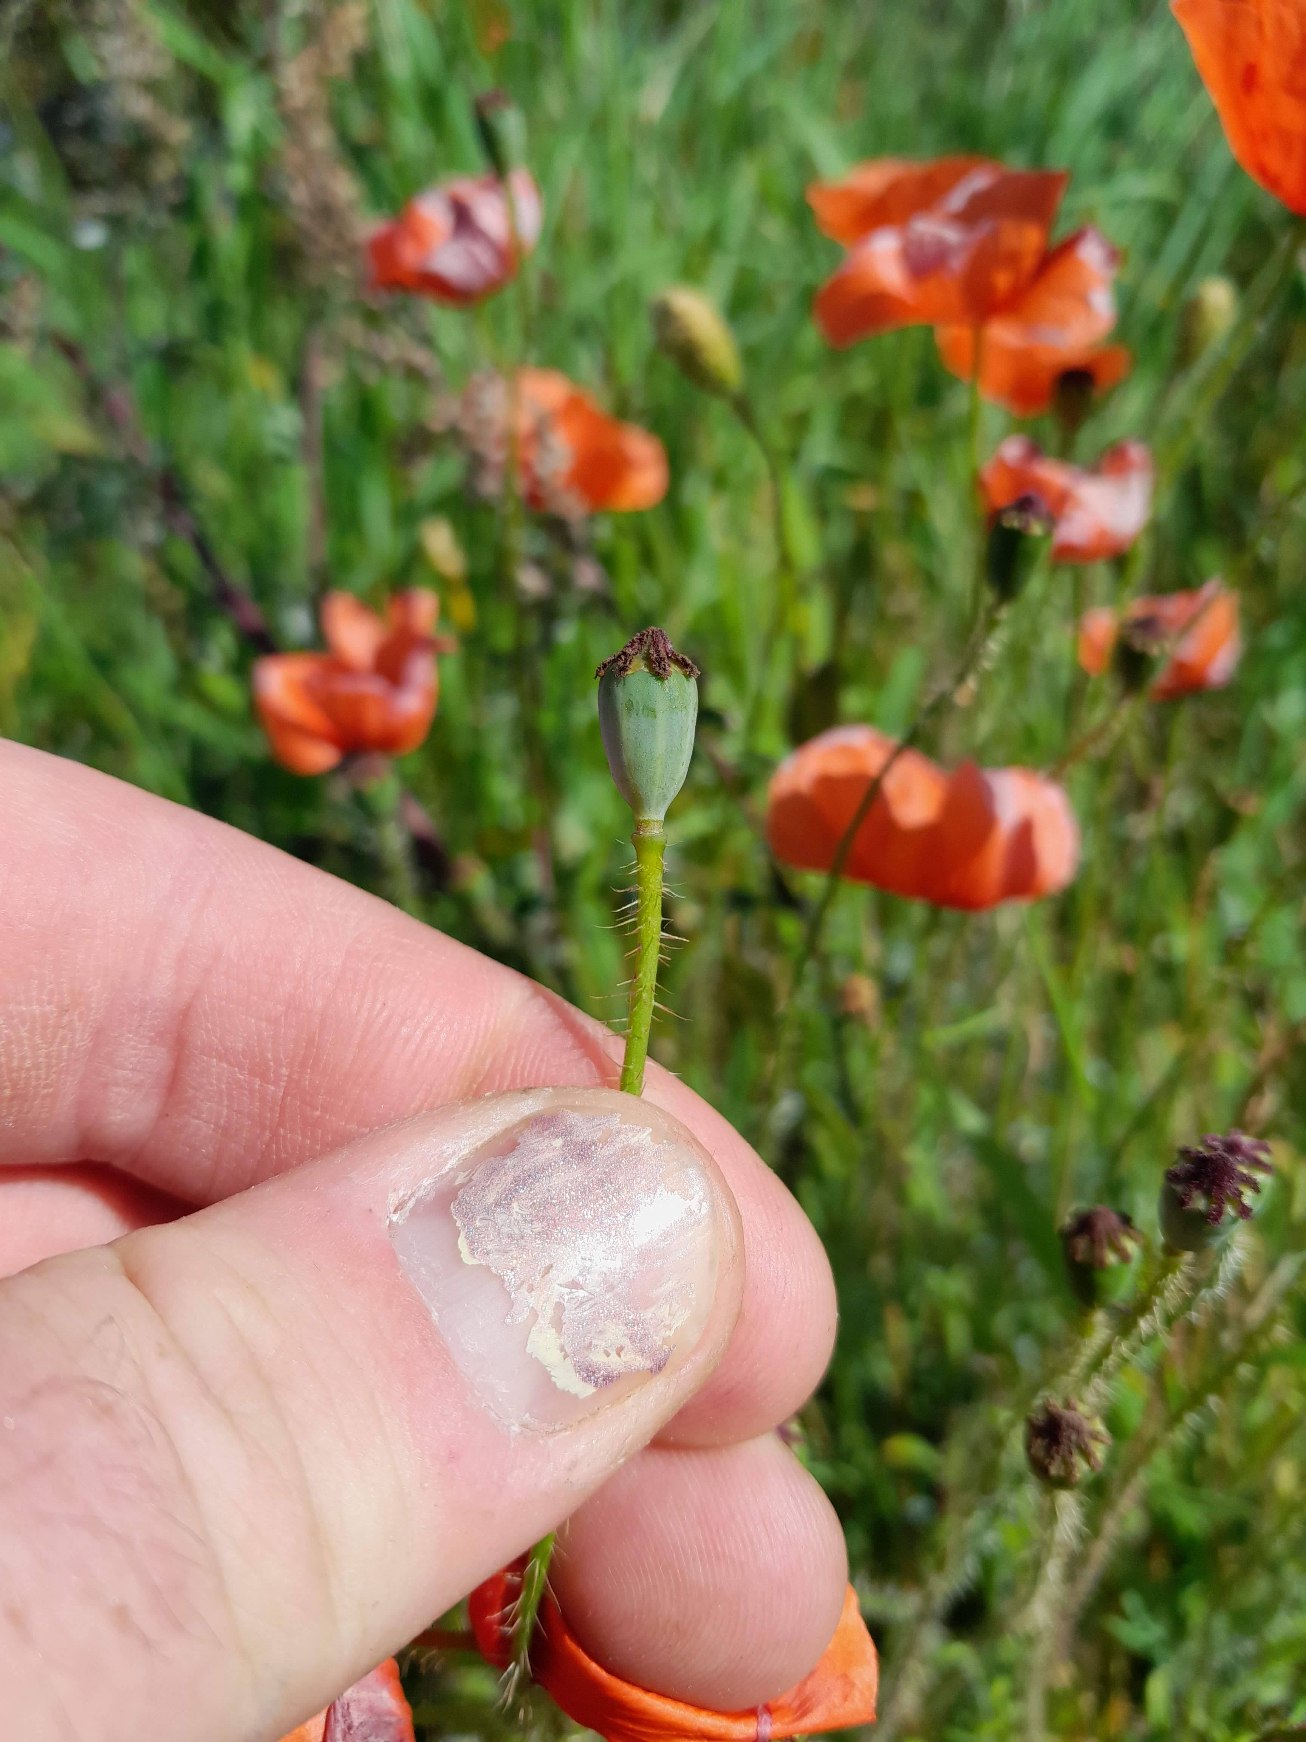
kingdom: Plantae
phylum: Tracheophyta
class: Magnoliopsida
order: Ranunculales
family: Papaveraceae
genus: Papaver
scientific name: Papaver rhoeas
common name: Korn-valmue
